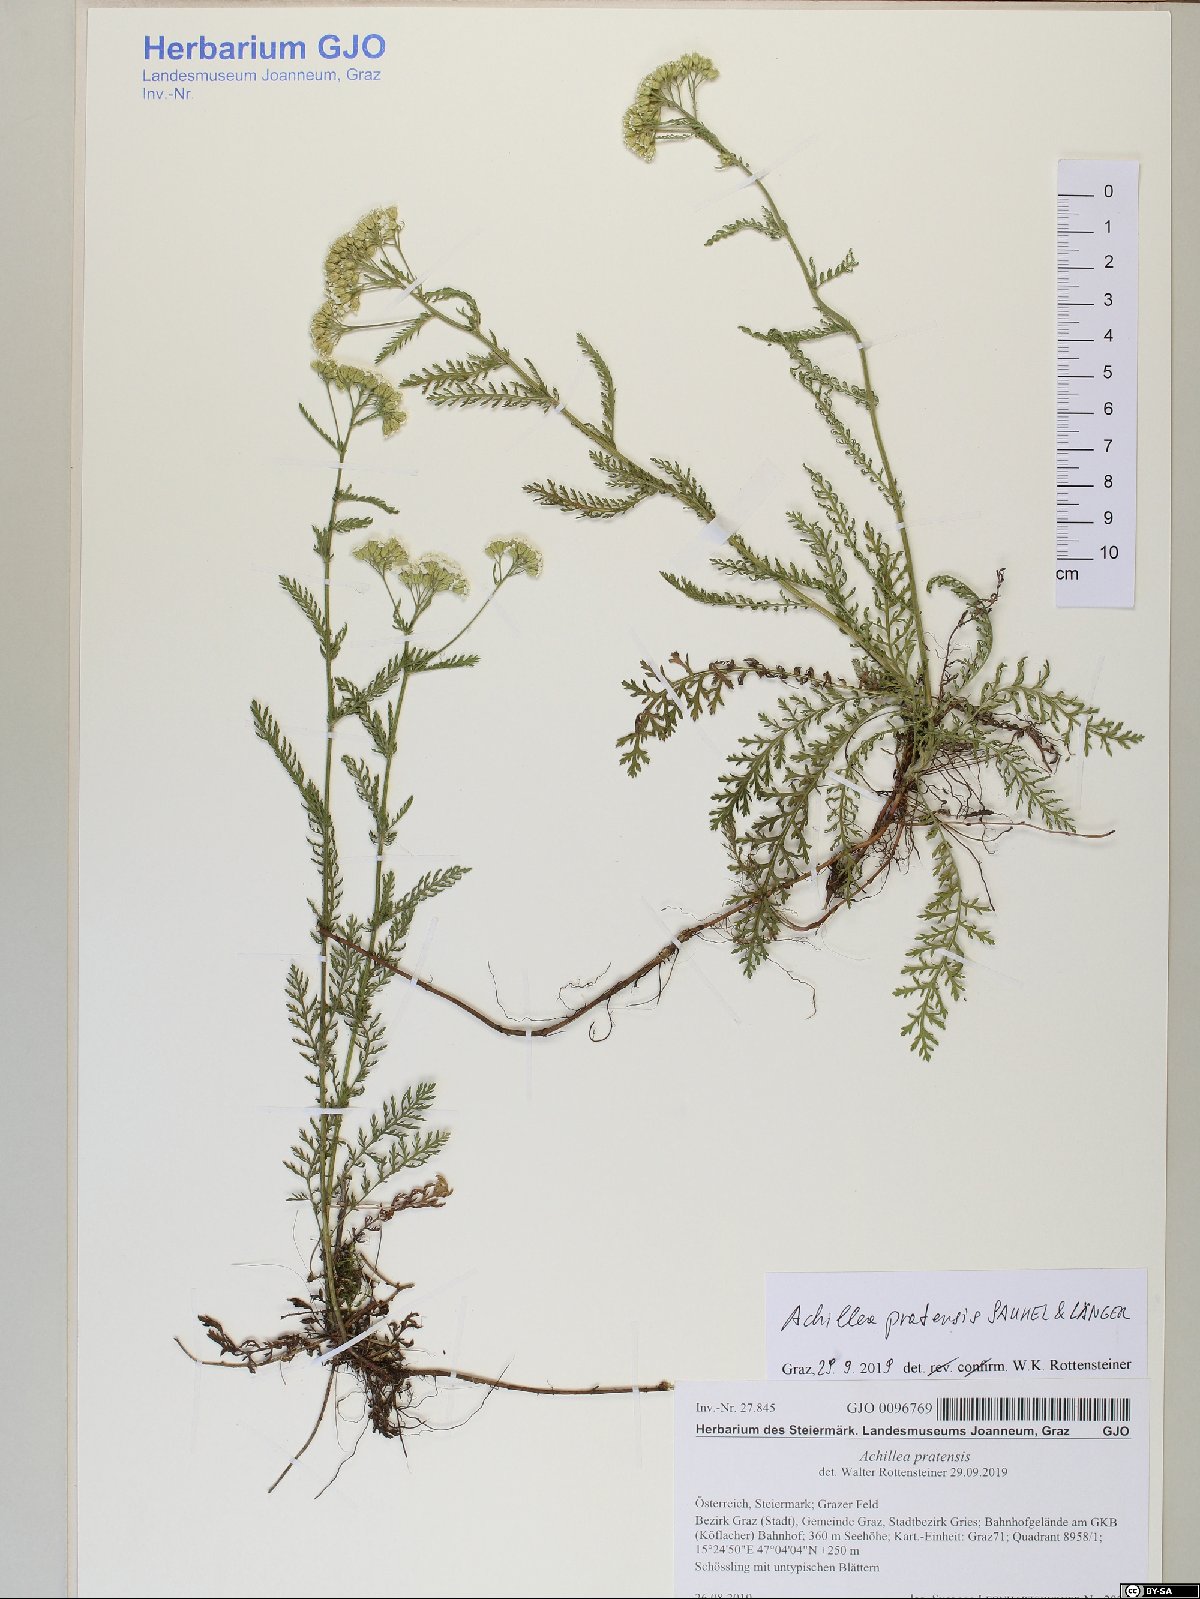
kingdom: Plantae
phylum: Tracheophyta
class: Magnoliopsida
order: Asterales
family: Asteraceae
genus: Achillea
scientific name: Achillea pratensis
